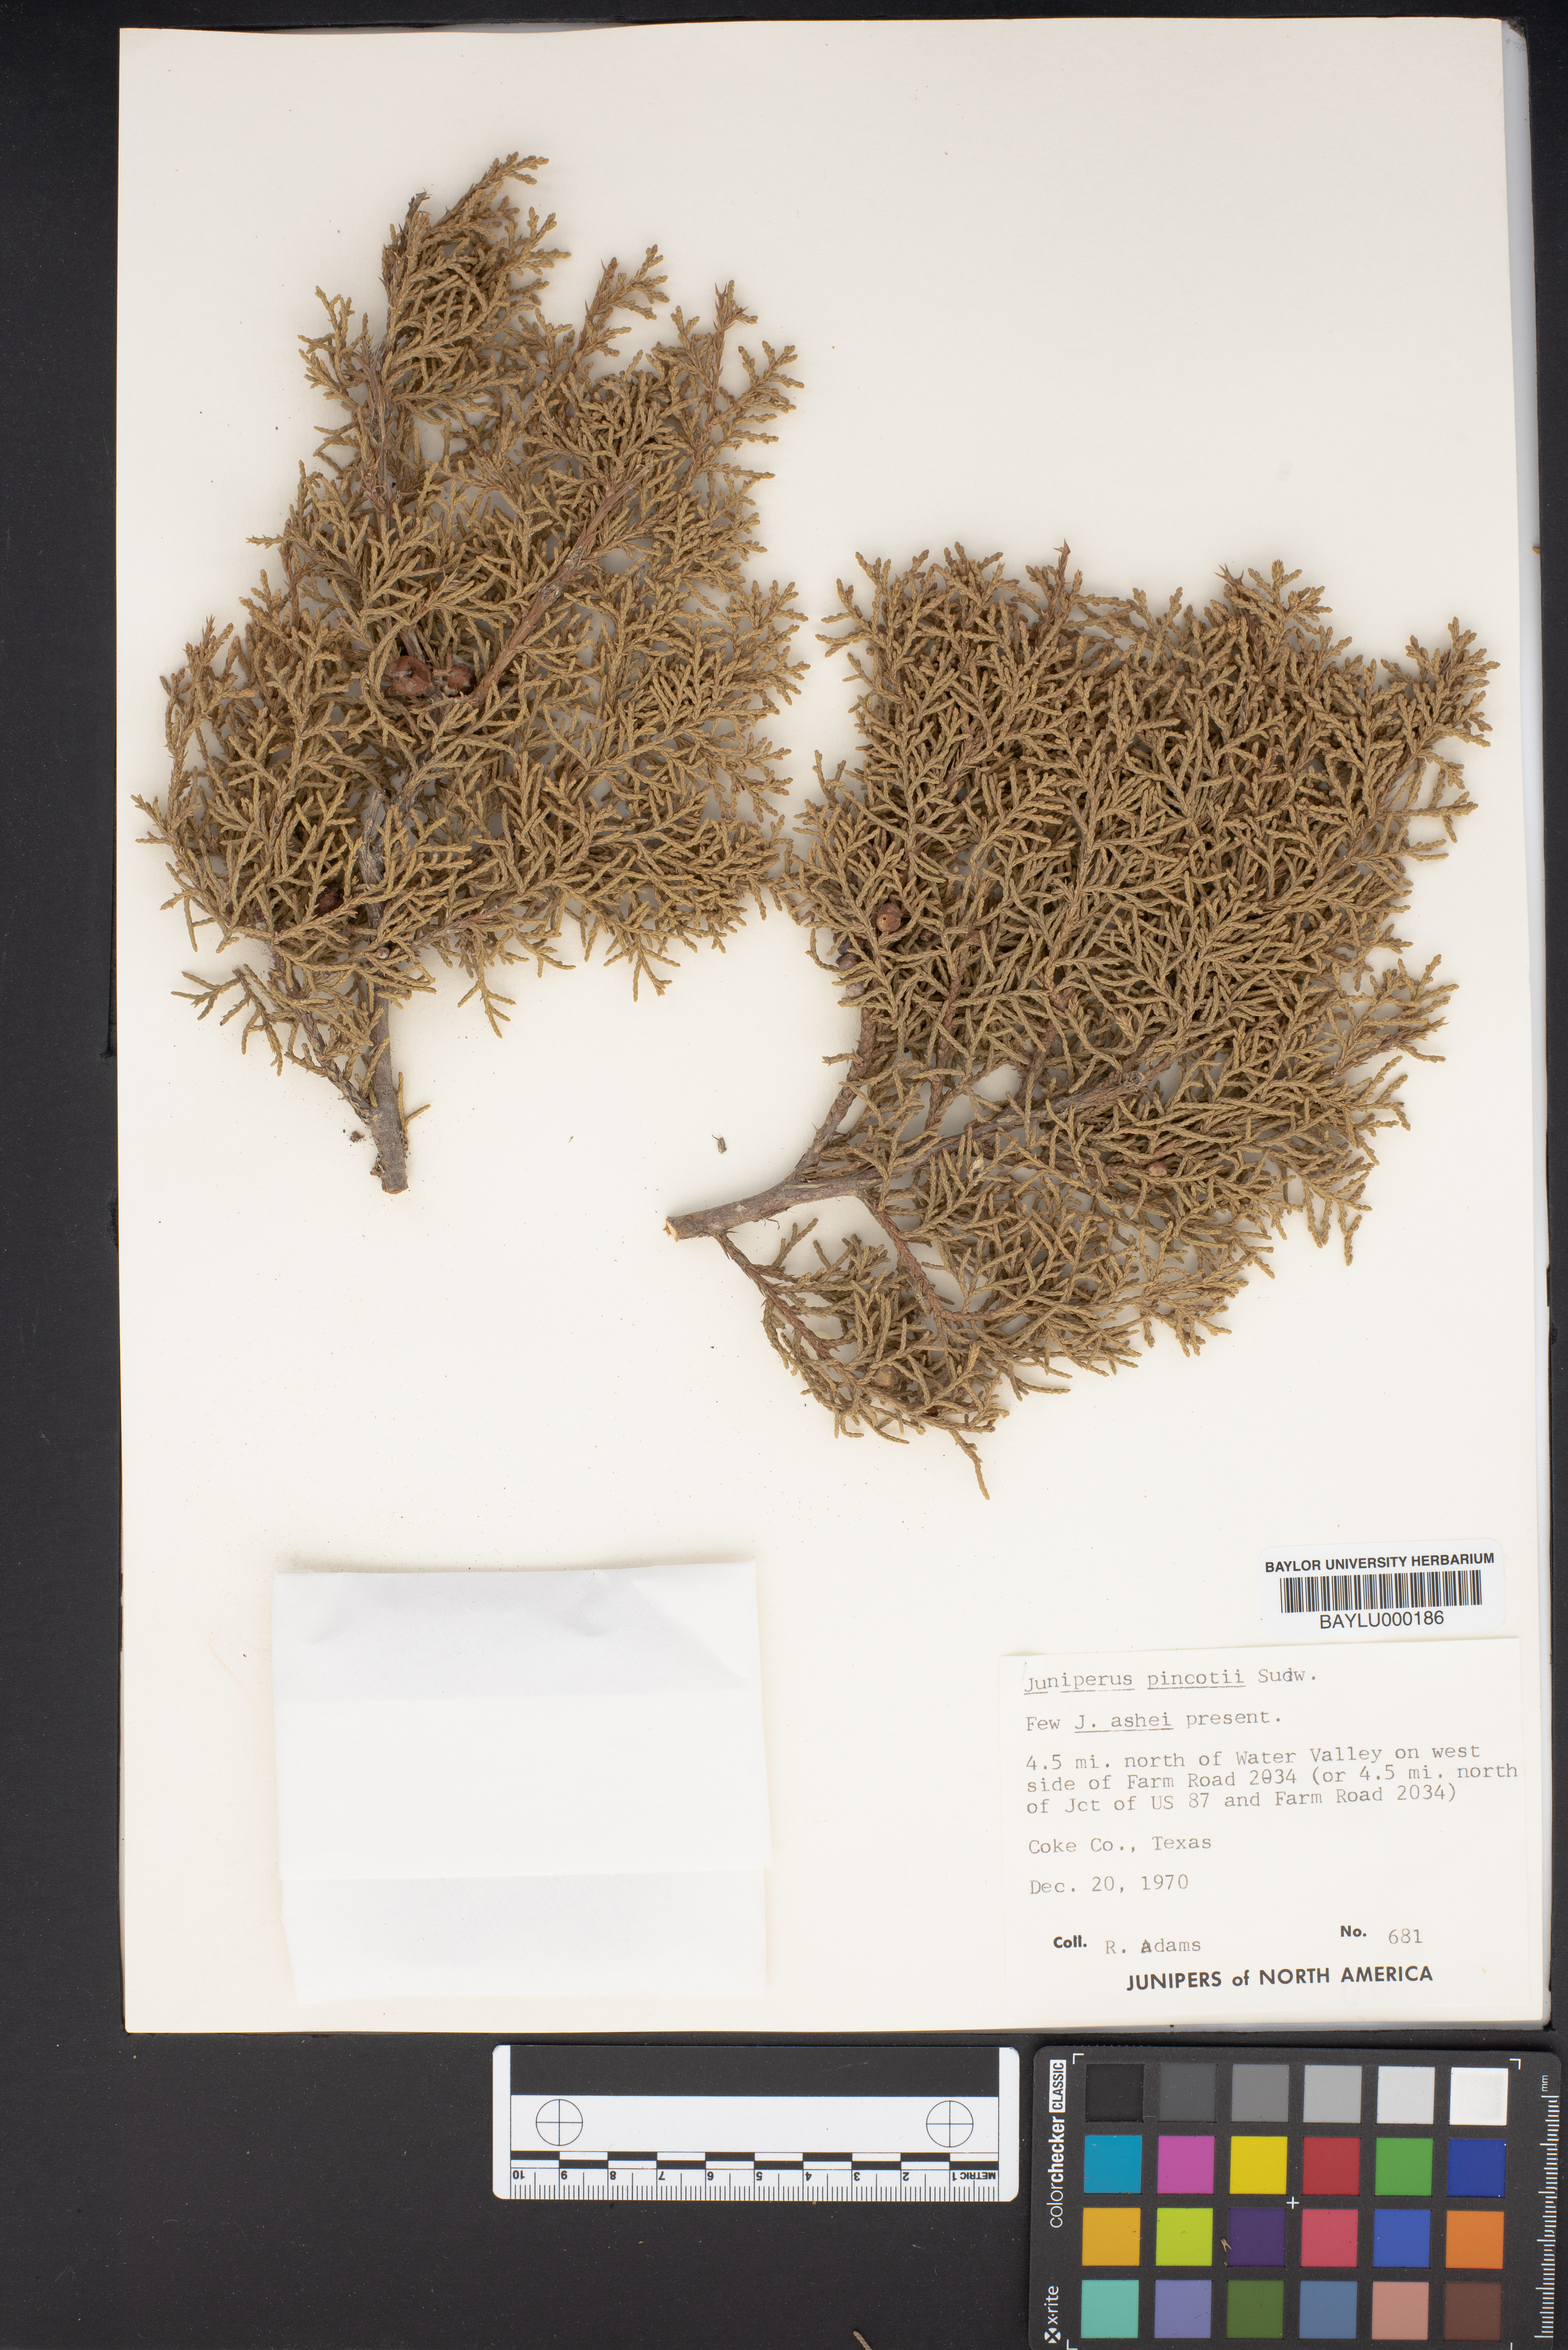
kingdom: Plantae
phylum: Tracheophyta
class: Pinopsida
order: Pinales
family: Cupressaceae
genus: Juniperus
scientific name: Juniperus pinchotii
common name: Pinchot juniper
